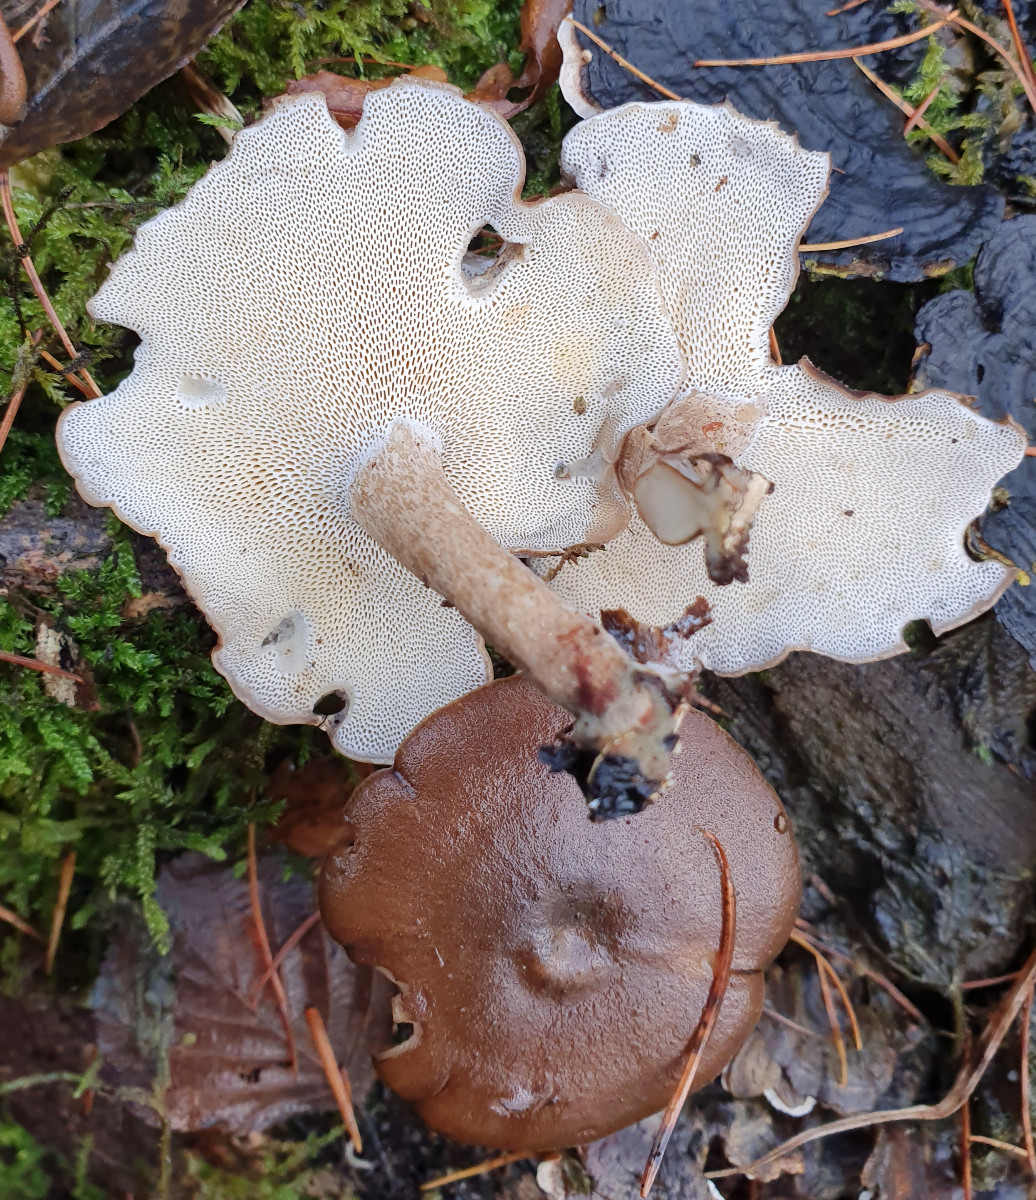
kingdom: Fungi
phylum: Basidiomycota
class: Agaricomycetes
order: Polyporales
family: Polyporaceae
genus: Lentinus
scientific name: Lentinus brumalis
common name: vinter-stilkporesvamp
